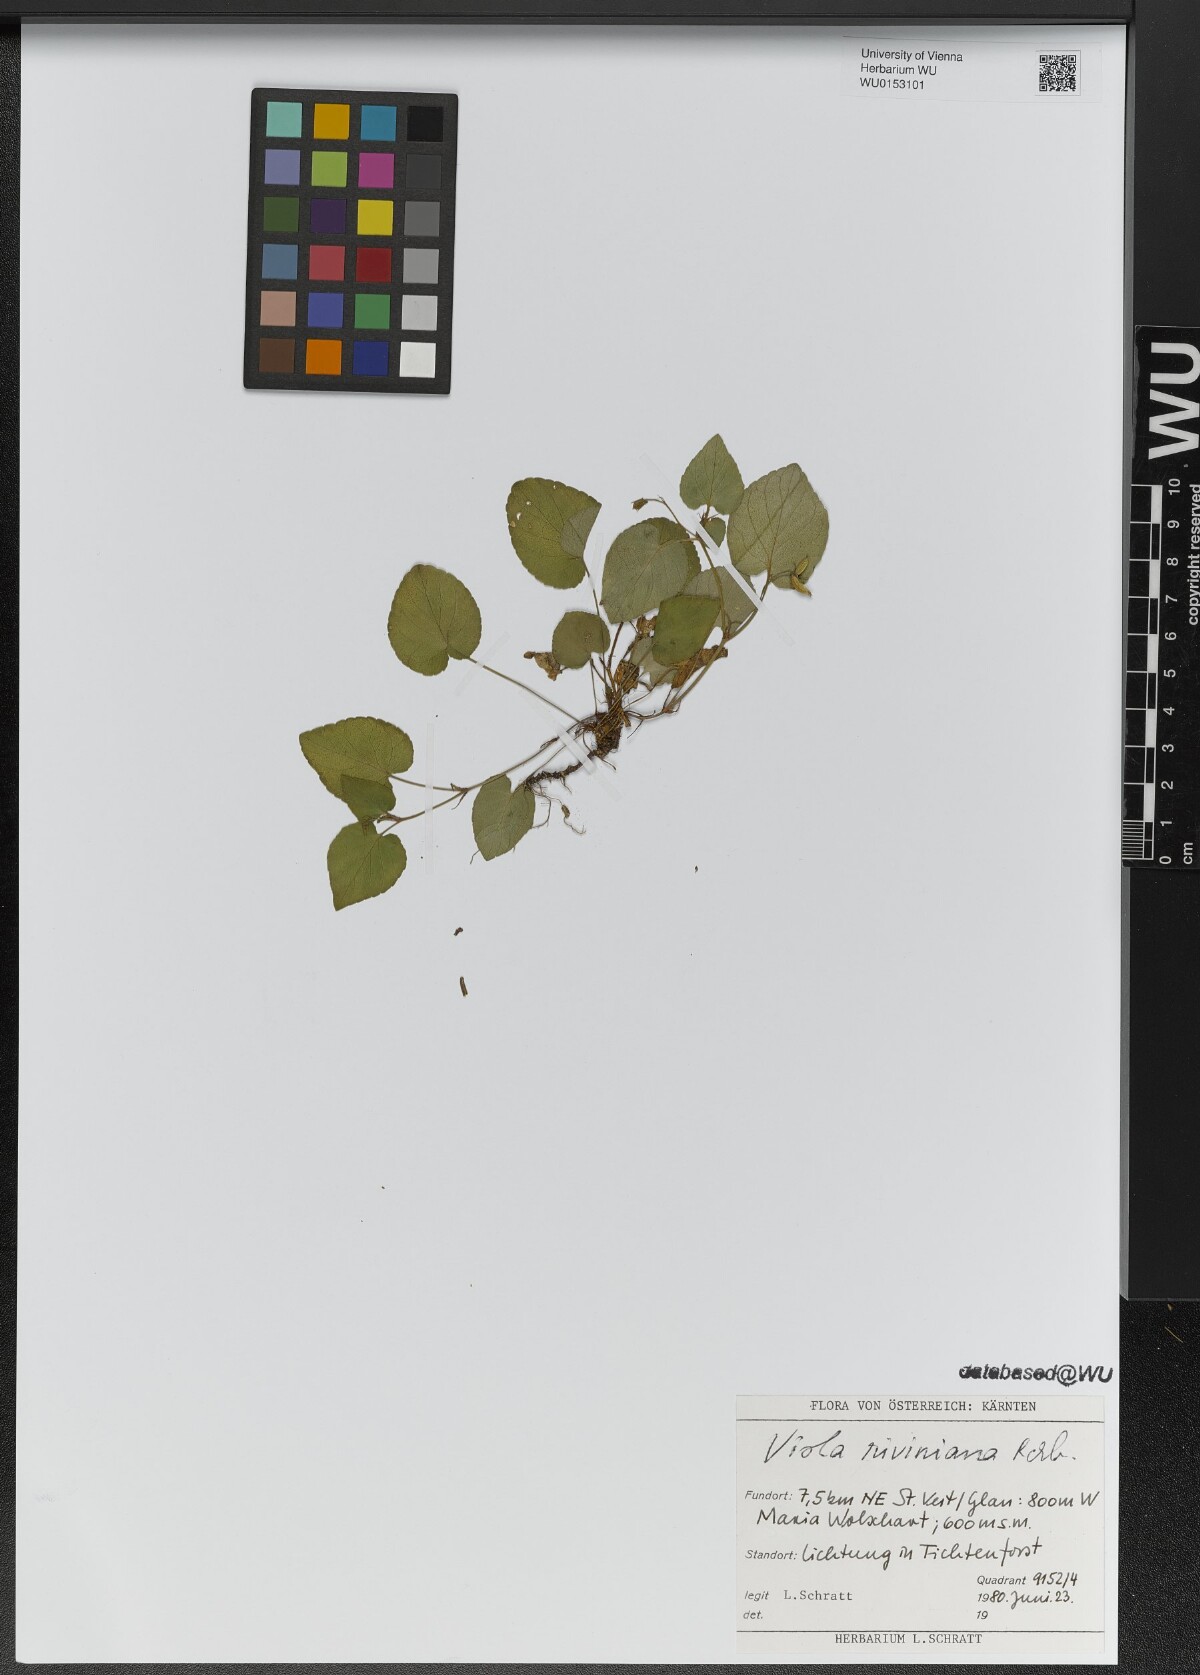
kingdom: Plantae
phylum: Tracheophyta
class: Magnoliopsida
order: Malpighiales
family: Violaceae
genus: Viola
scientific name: Viola riviniana
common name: Common dog-violet
